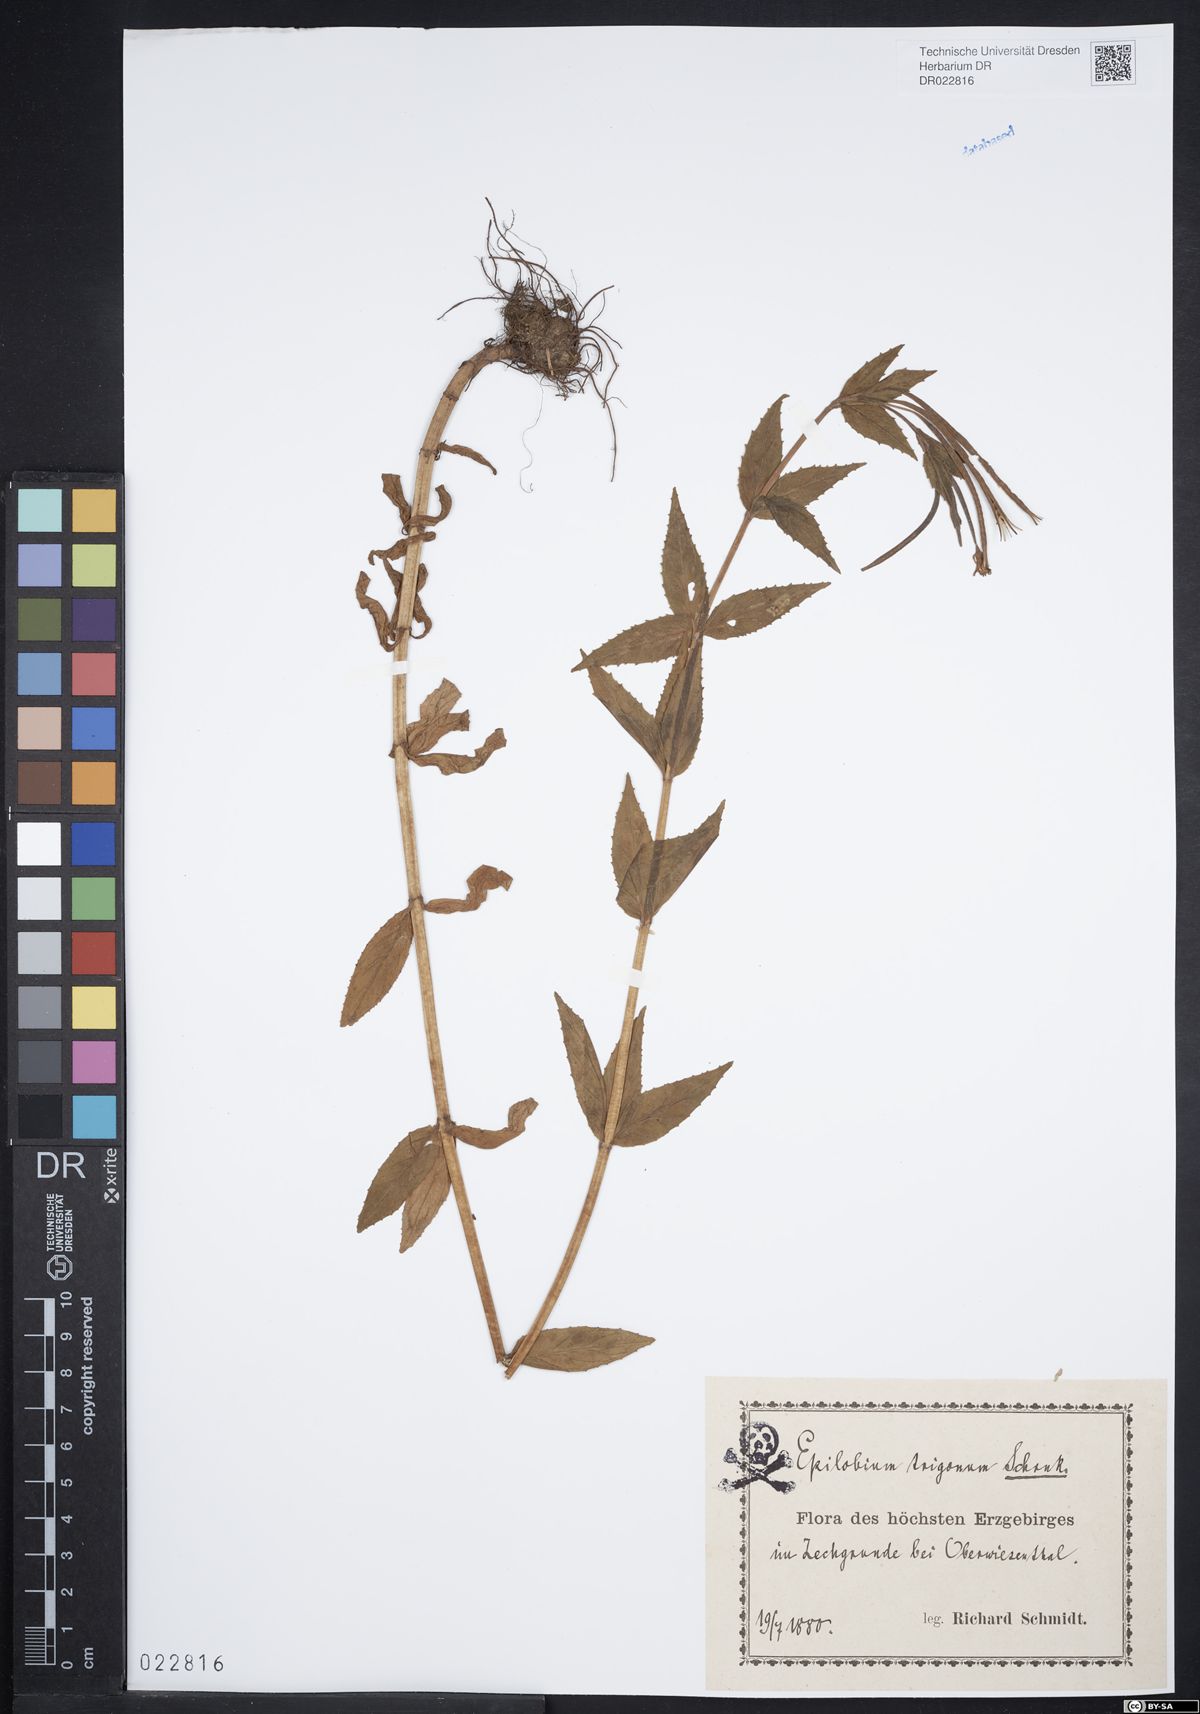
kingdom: Plantae
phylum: Tracheophyta
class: Magnoliopsida
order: Myrtales
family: Onagraceae
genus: Epilobium
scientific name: Epilobium alpestre
